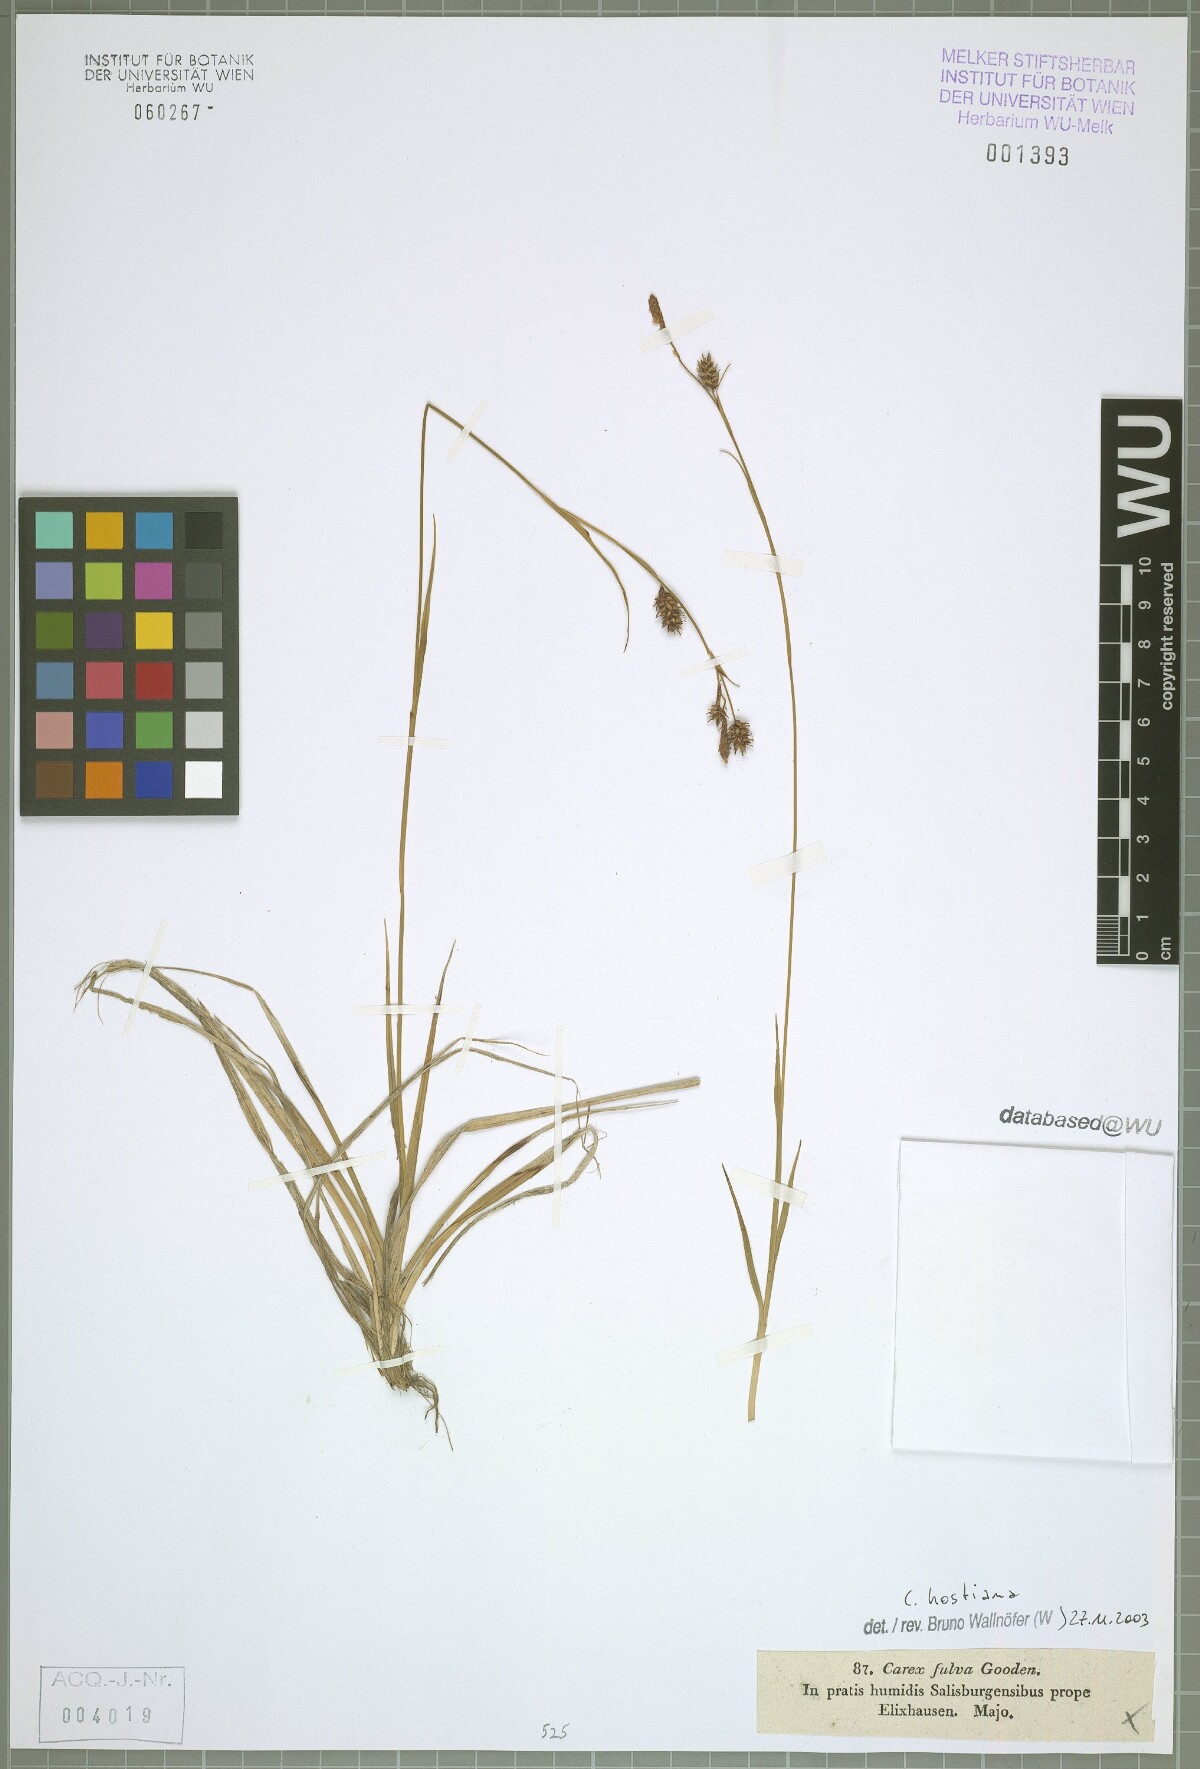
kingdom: Plantae
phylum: Tracheophyta
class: Liliopsida
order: Poales
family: Cyperaceae
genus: Carex
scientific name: Carex hostiana
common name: Tawny sedge
